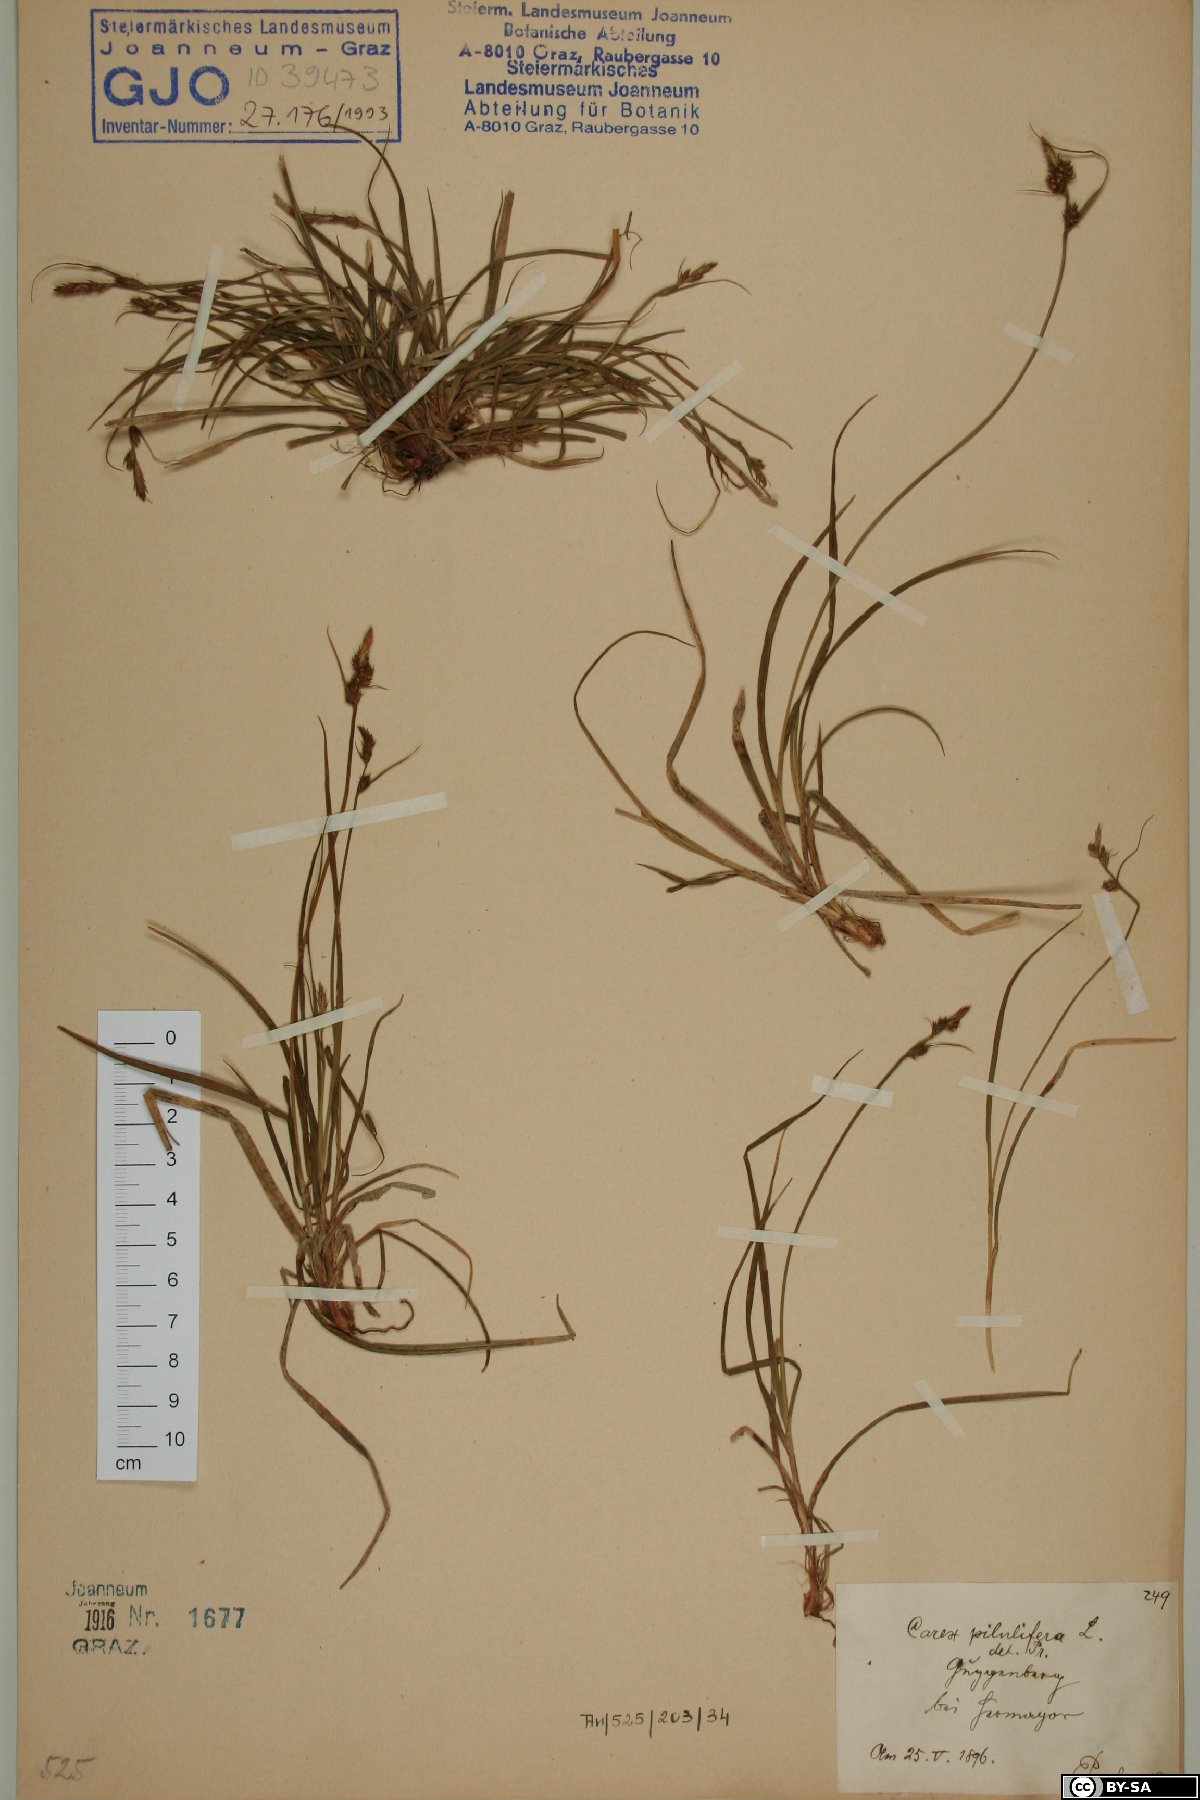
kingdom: Plantae
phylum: Tracheophyta
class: Liliopsida
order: Poales
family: Cyperaceae
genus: Carex
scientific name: Carex pilulifera
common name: Pill sedge
